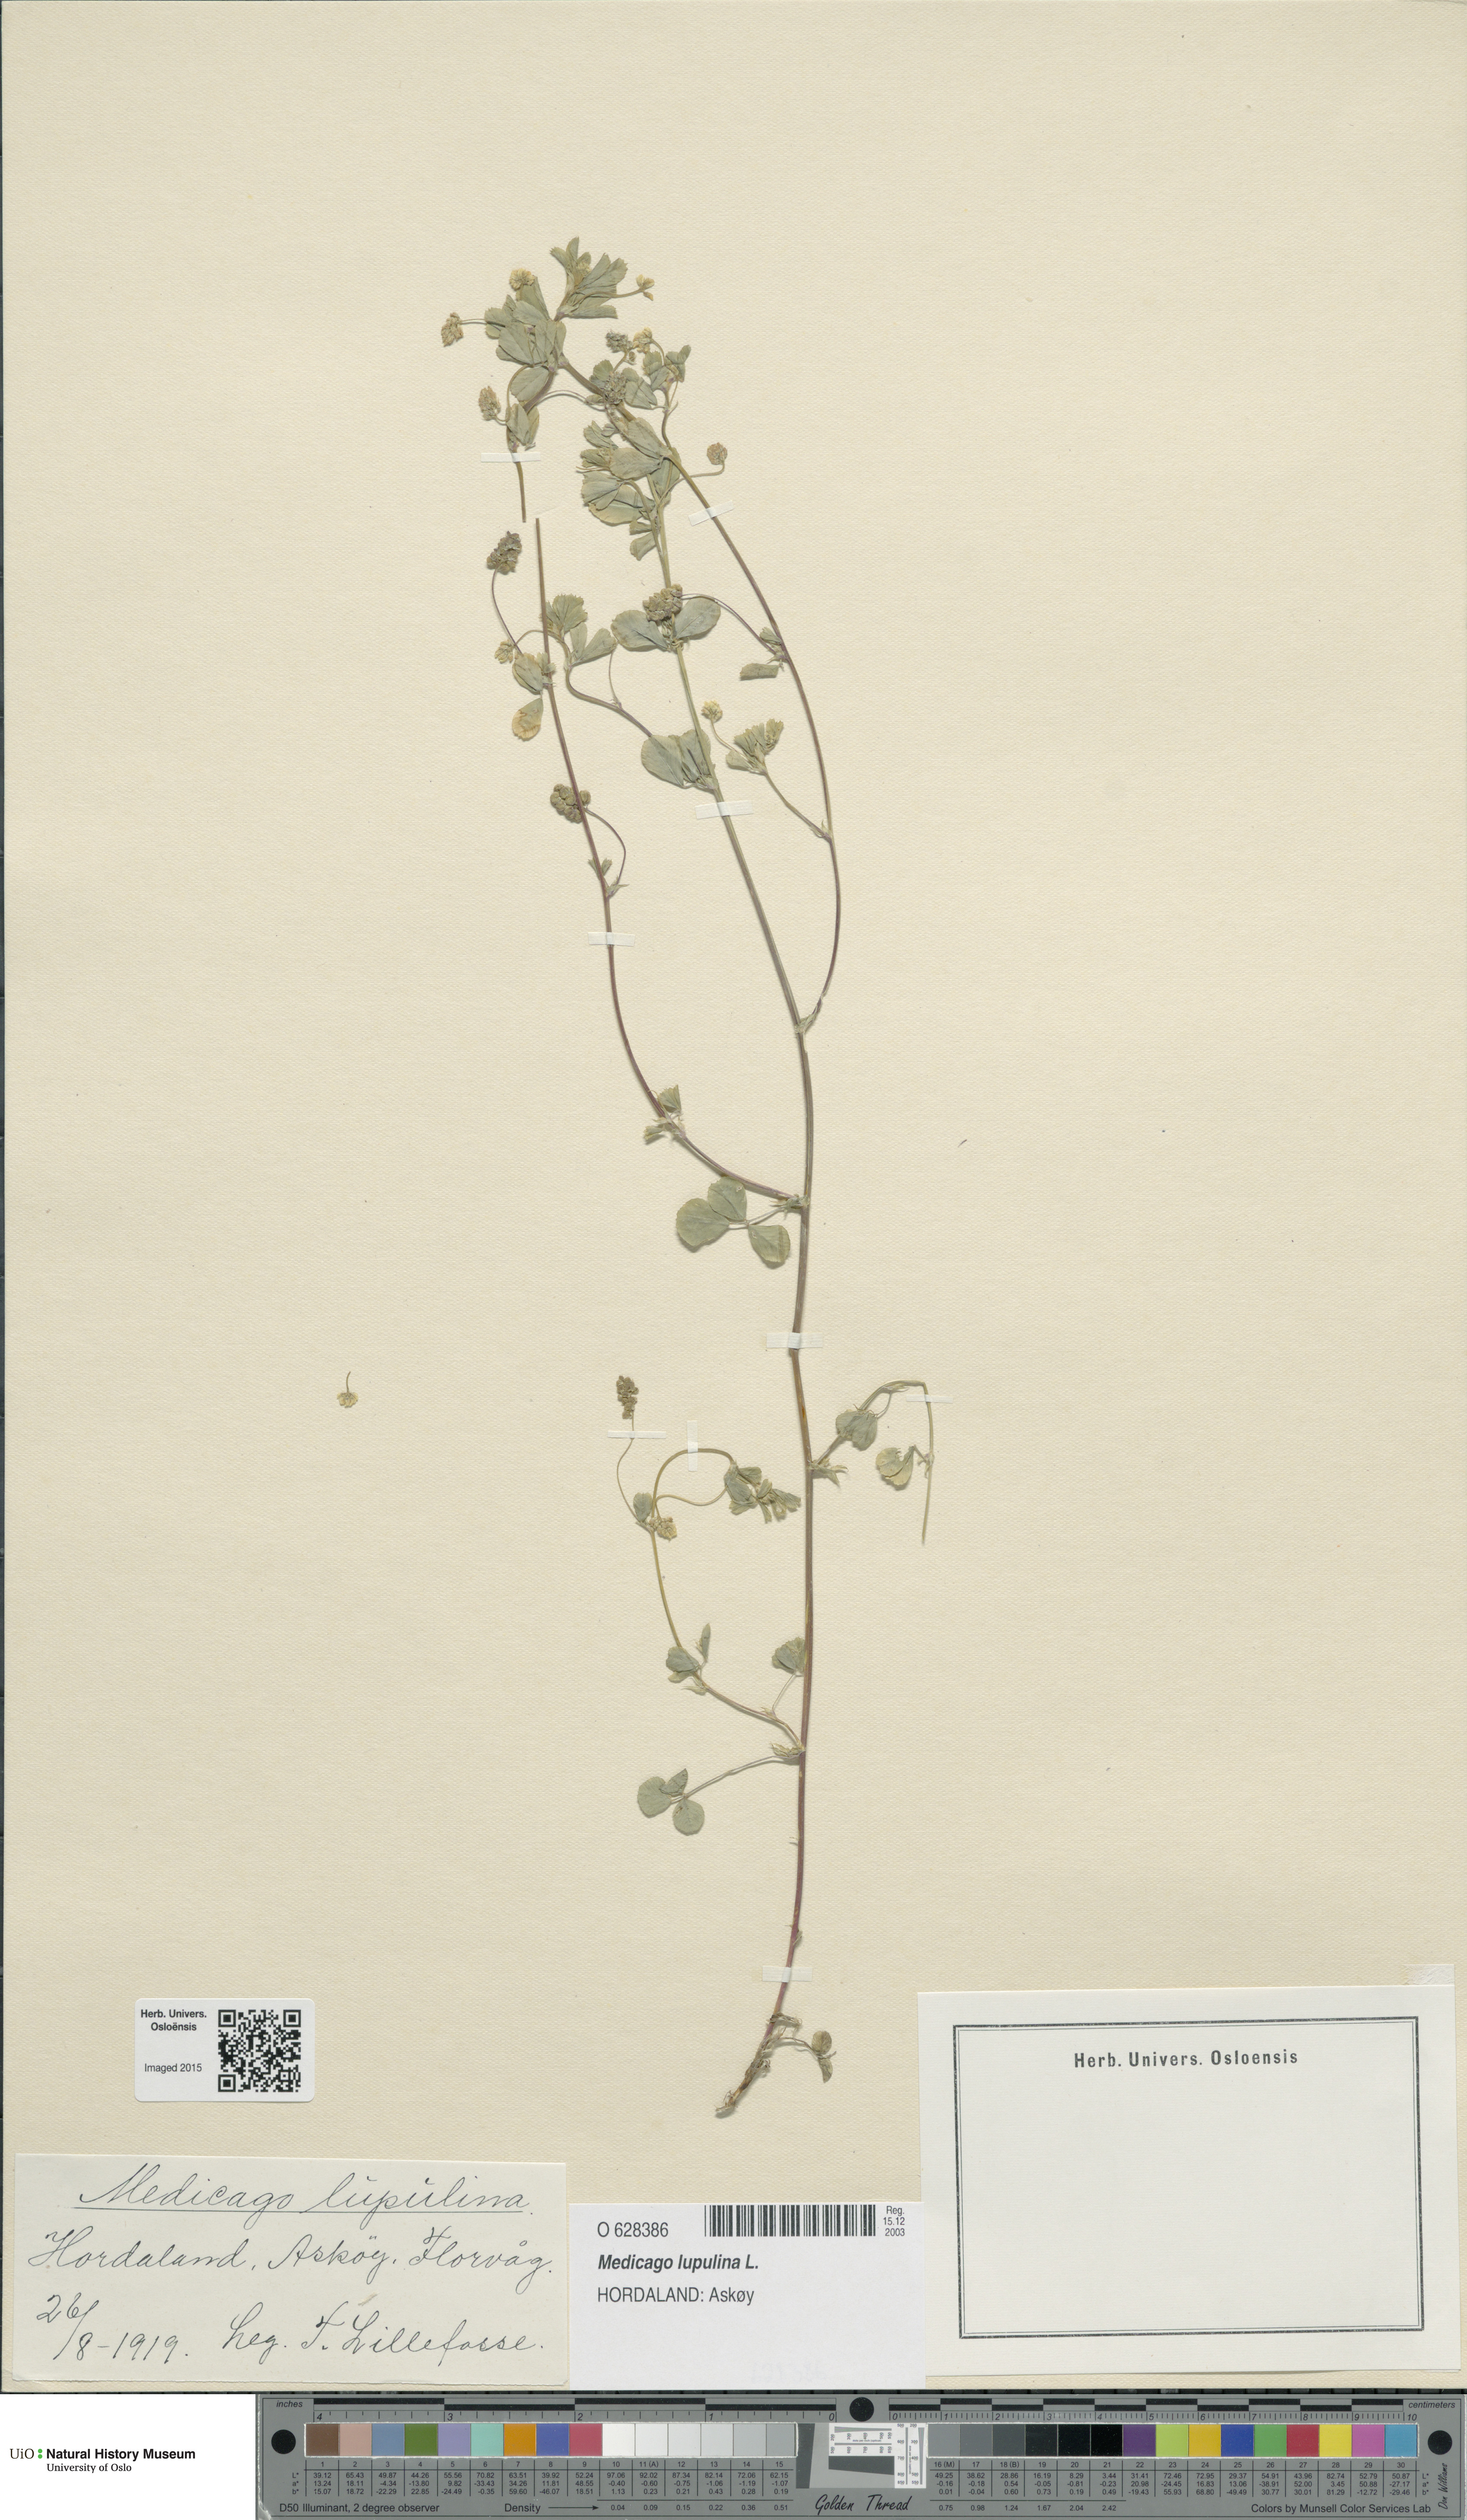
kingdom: Plantae
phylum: Tracheophyta
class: Magnoliopsida
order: Fabales
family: Fabaceae
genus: Medicago
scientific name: Medicago lupulina
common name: Black medick
